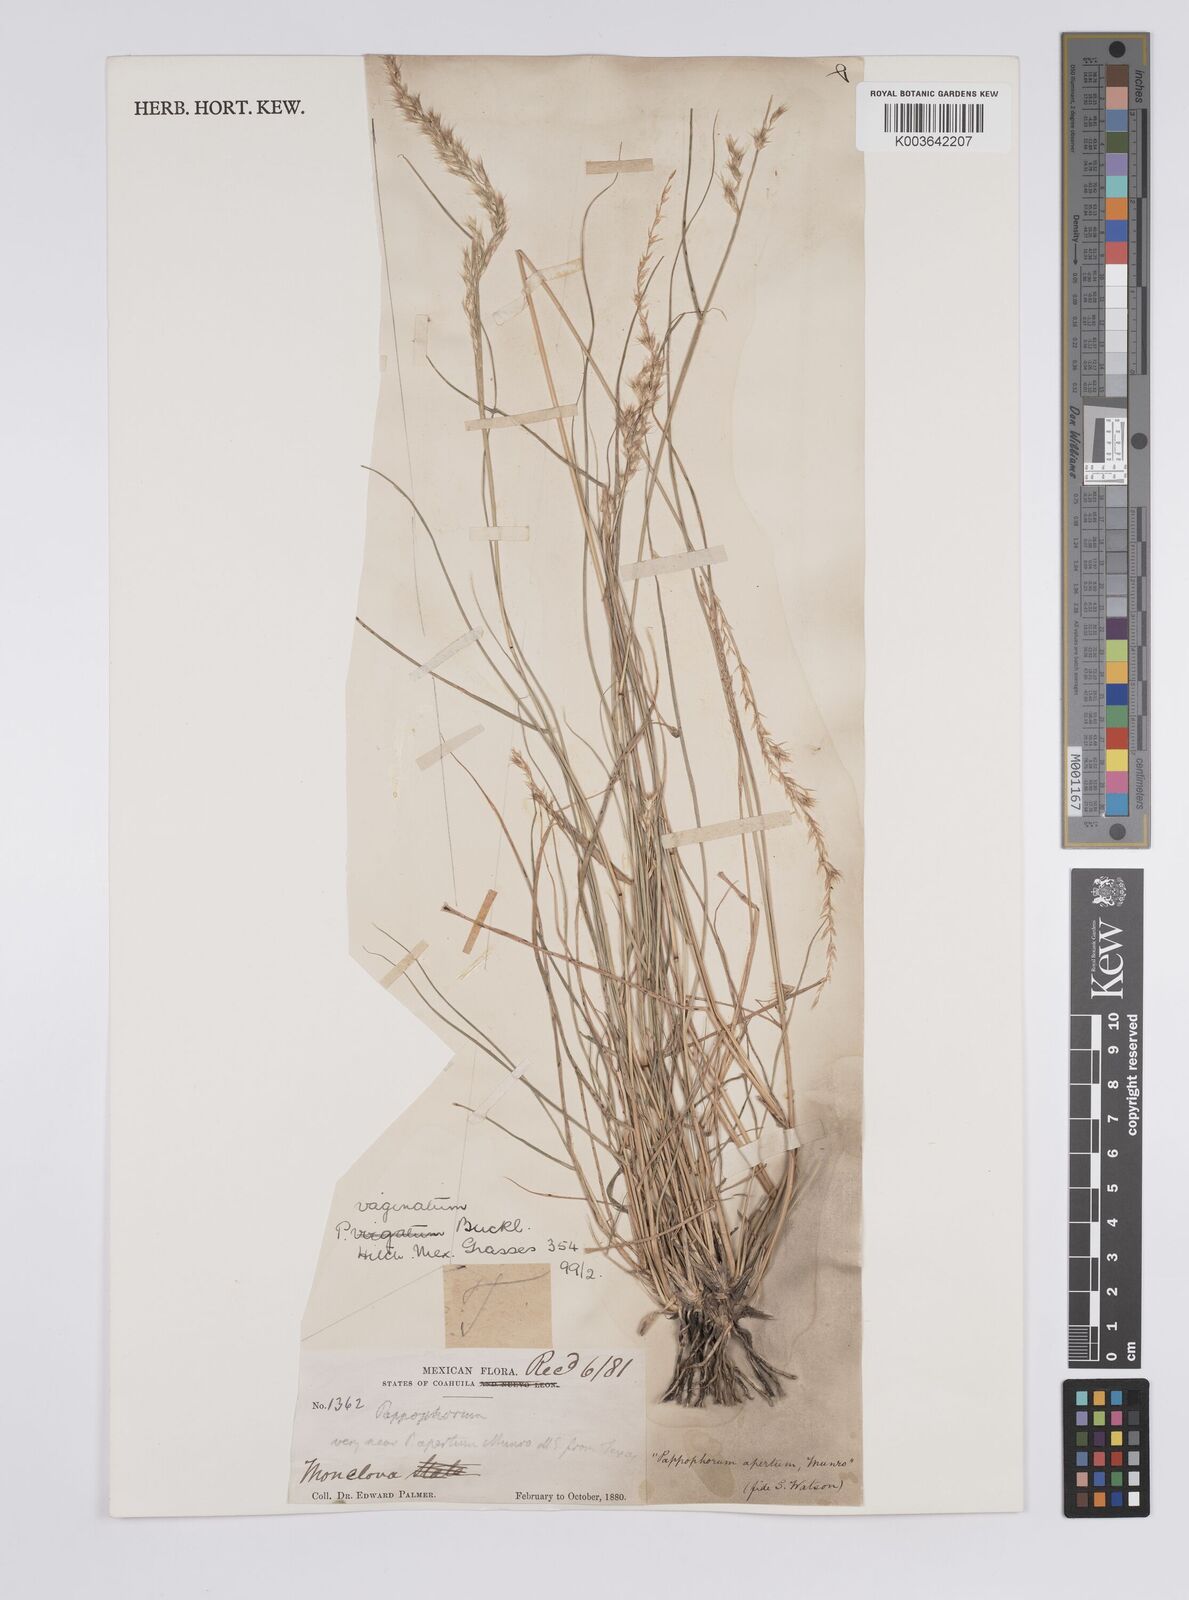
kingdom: Plantae
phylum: Tracheophyta
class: Liliopsida
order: Poales
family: Poaceae
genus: Pappophorum
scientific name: Pappophorum bicolor
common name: Pink pappus grass
